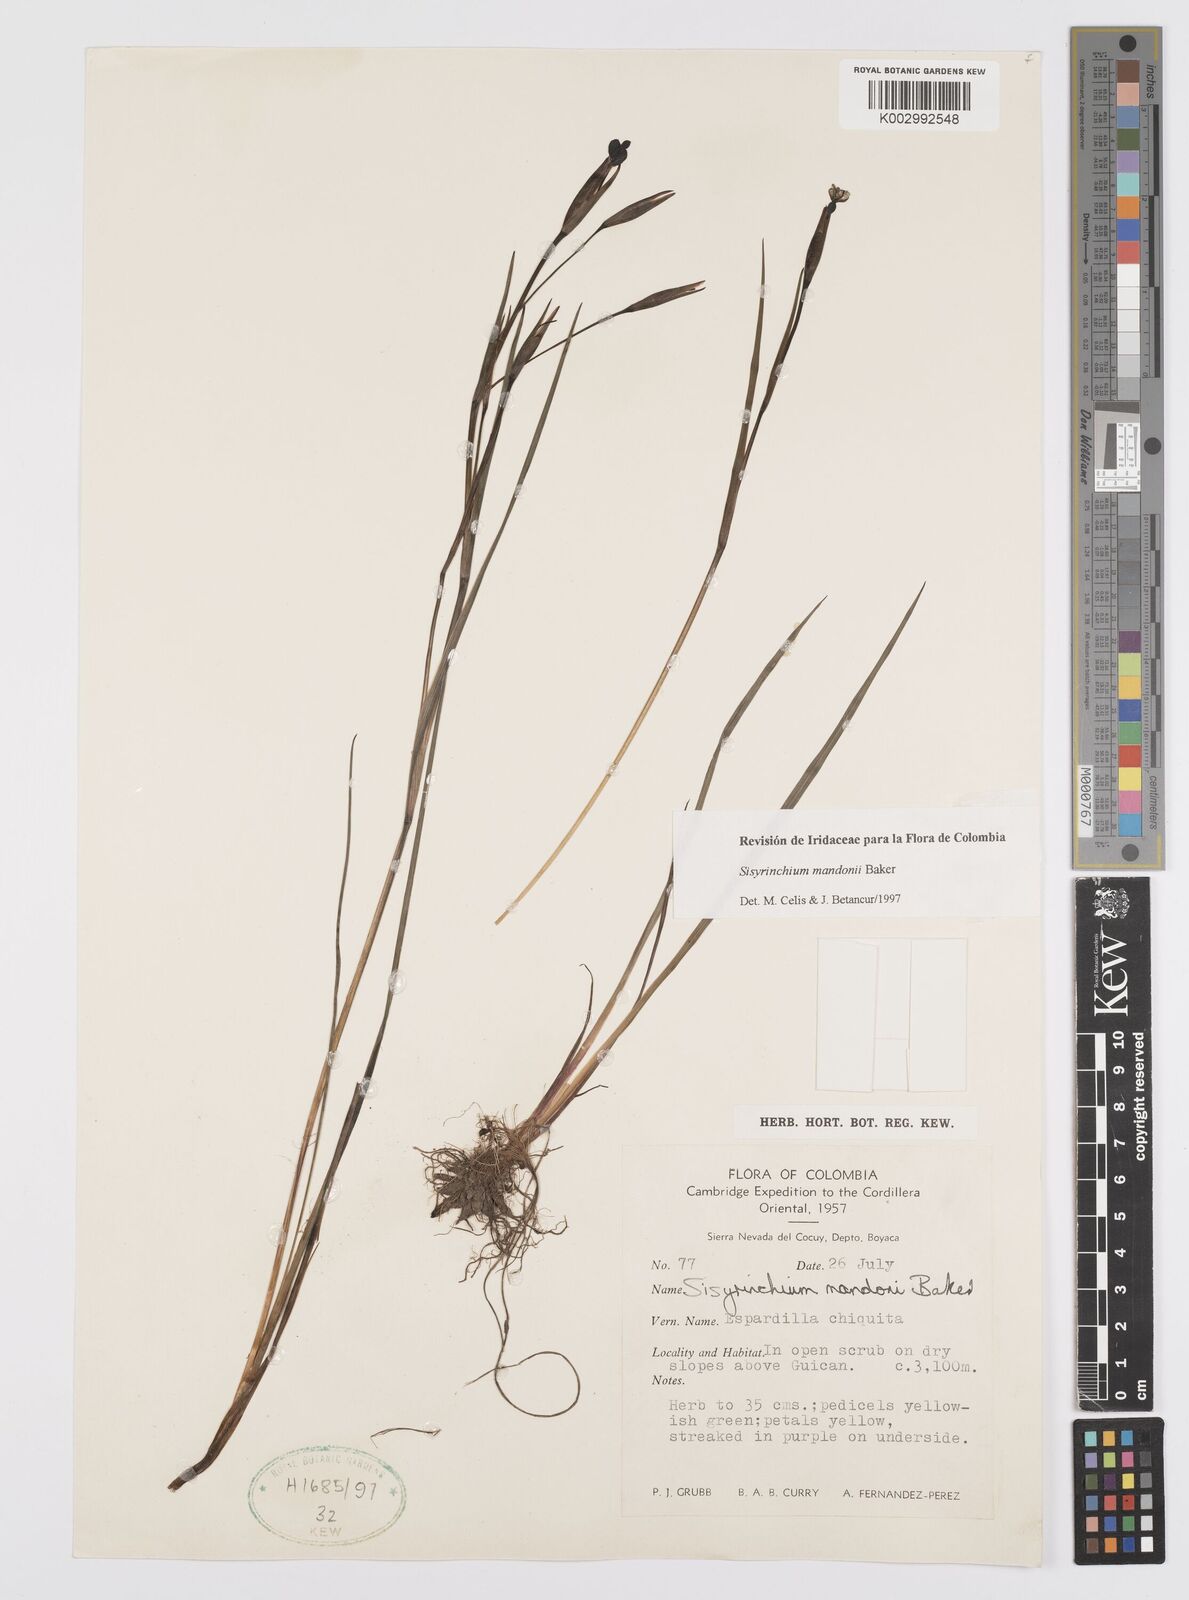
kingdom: Plantae
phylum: Tracheophyta
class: Liliopsida
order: Asparagales
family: Iridaceae
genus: Sisyrinchium
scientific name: Sisyrinchium mandonii
